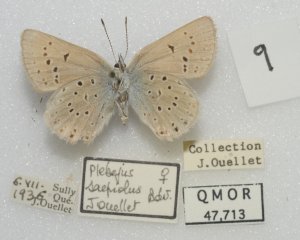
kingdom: Animalia
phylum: Arthropoda
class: Insecta
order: Lepidoptera
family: Lycaenidae
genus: Plebejus
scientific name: Plebejus saepiolus
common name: Greenish Blue
